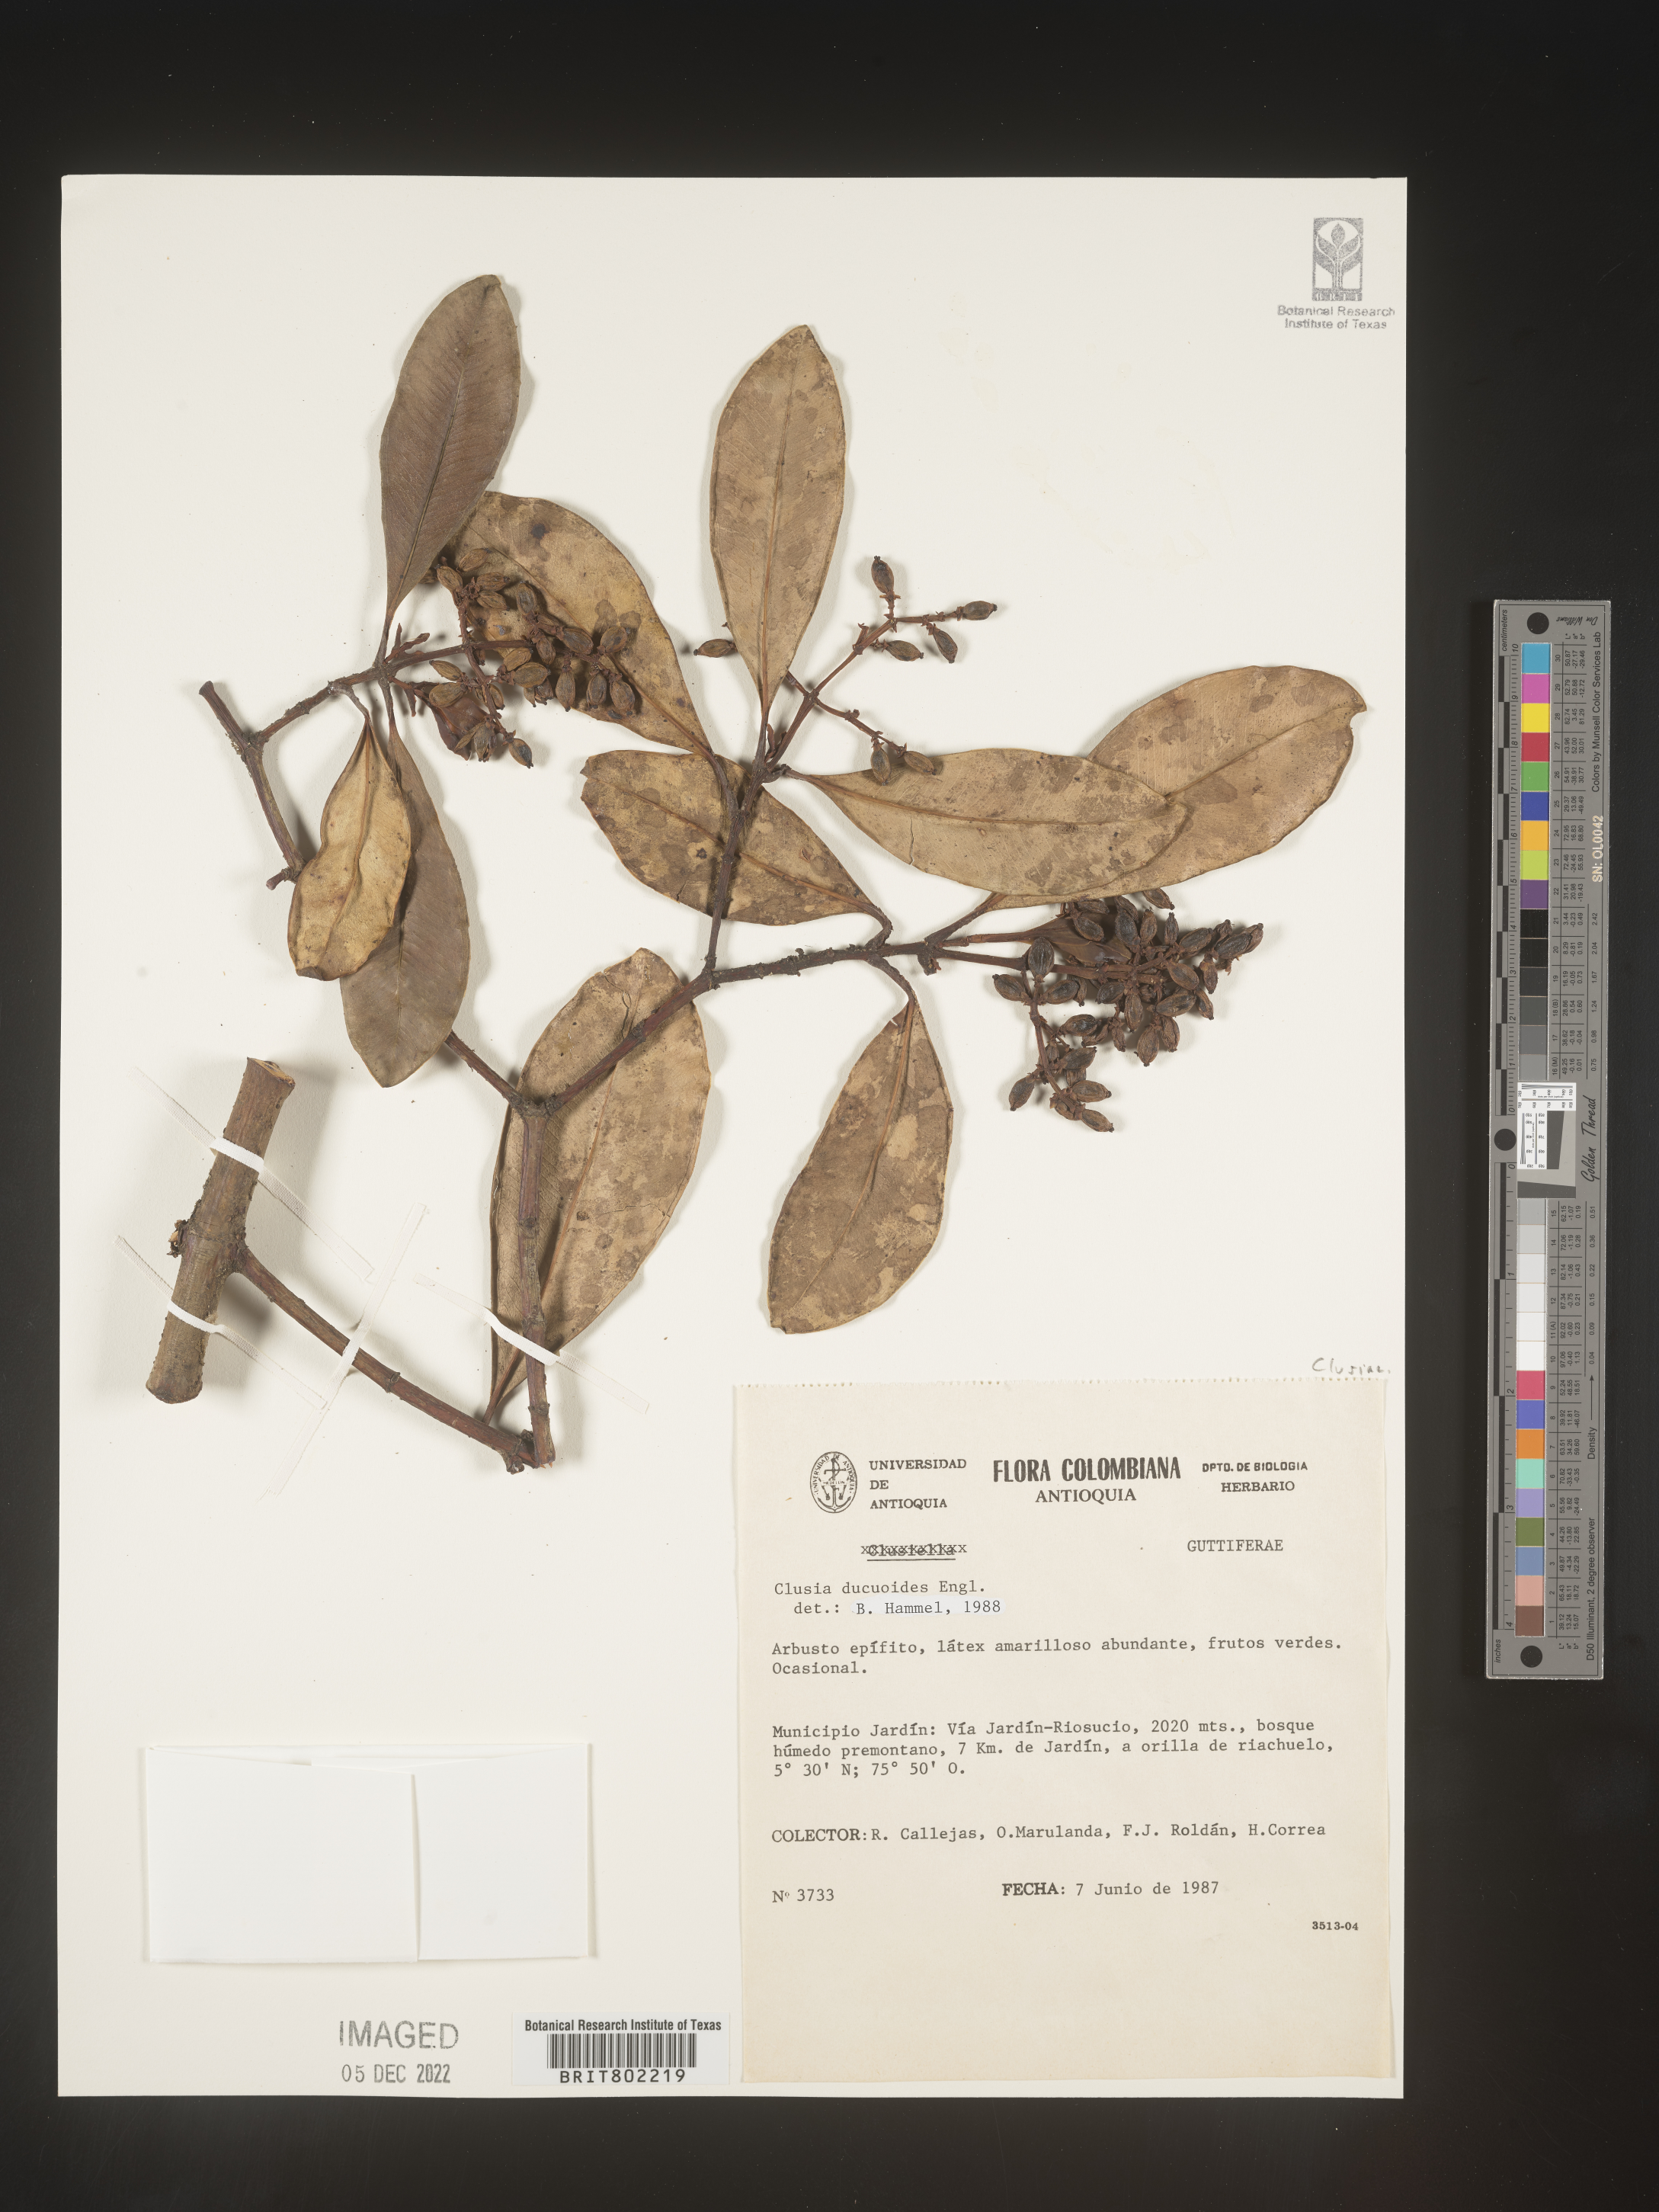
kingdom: Plantae
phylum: Tracheophyta
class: Magnoliopsida
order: Malpighiales
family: Clusiaceae
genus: Clusia
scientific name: Clusia ducuoides
